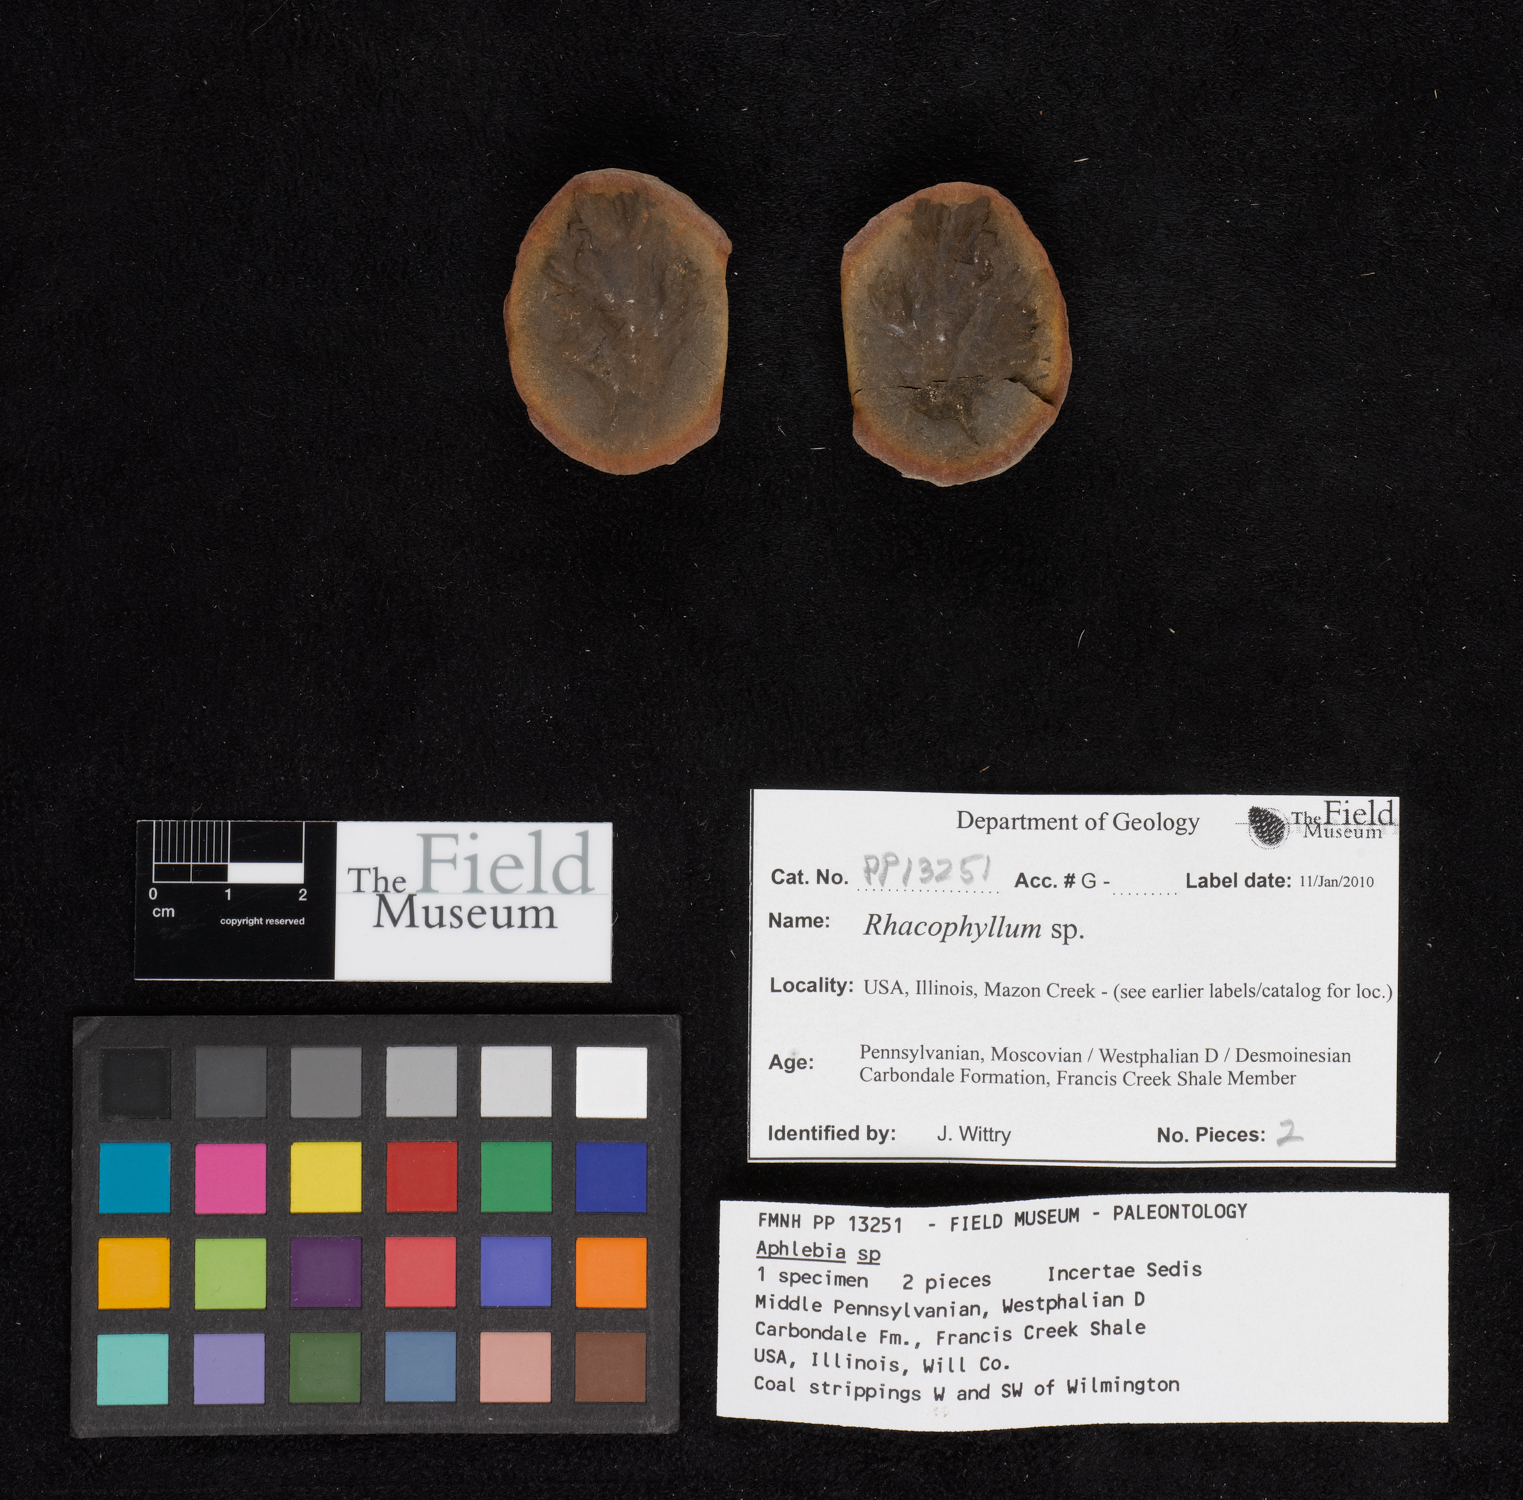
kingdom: Plantae
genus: Rhacophyllum
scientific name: Rhacophyllum
